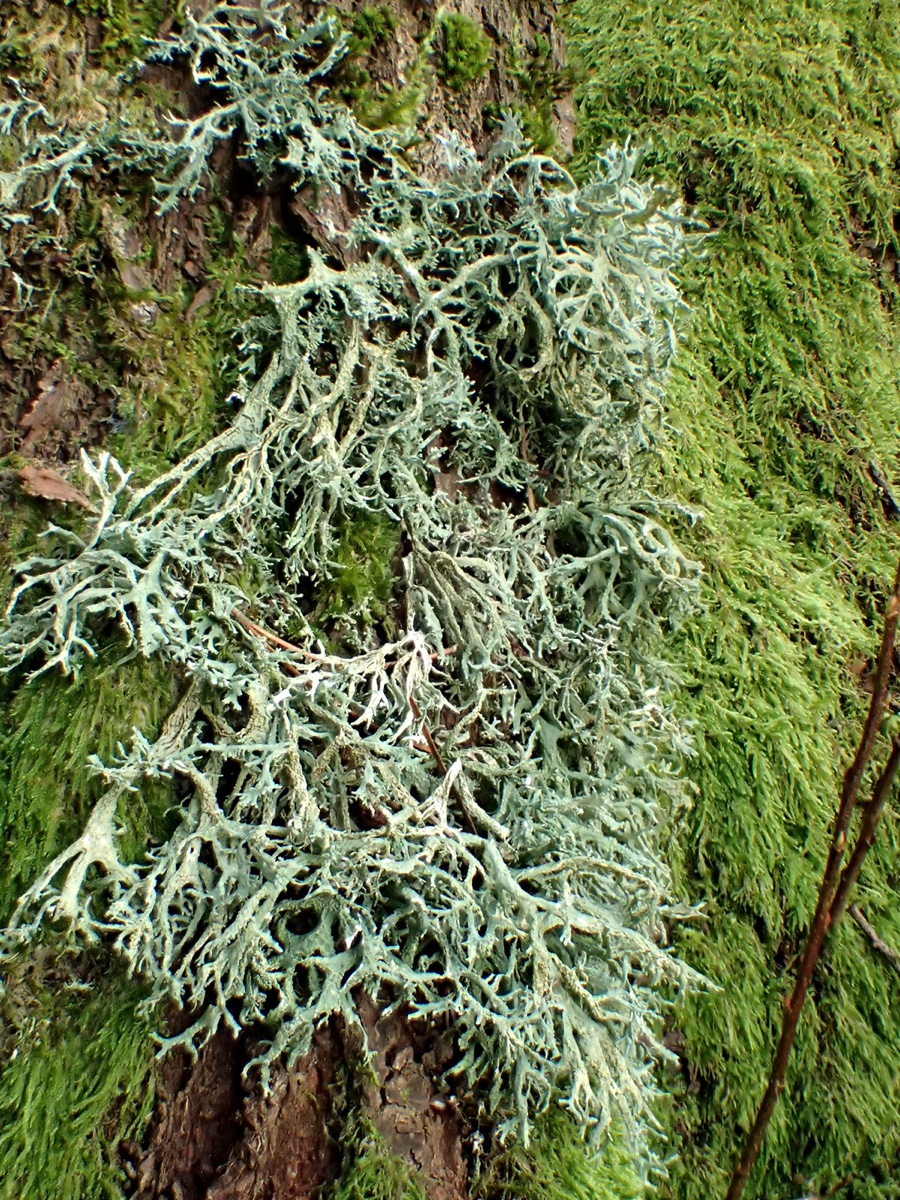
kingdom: Fungi
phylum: Ascomycota
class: Lecanoromycetes
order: Lecanorales
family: Parmeliaceae
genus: Evernia
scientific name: Evernia prunastri
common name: almindelig slåenlav
